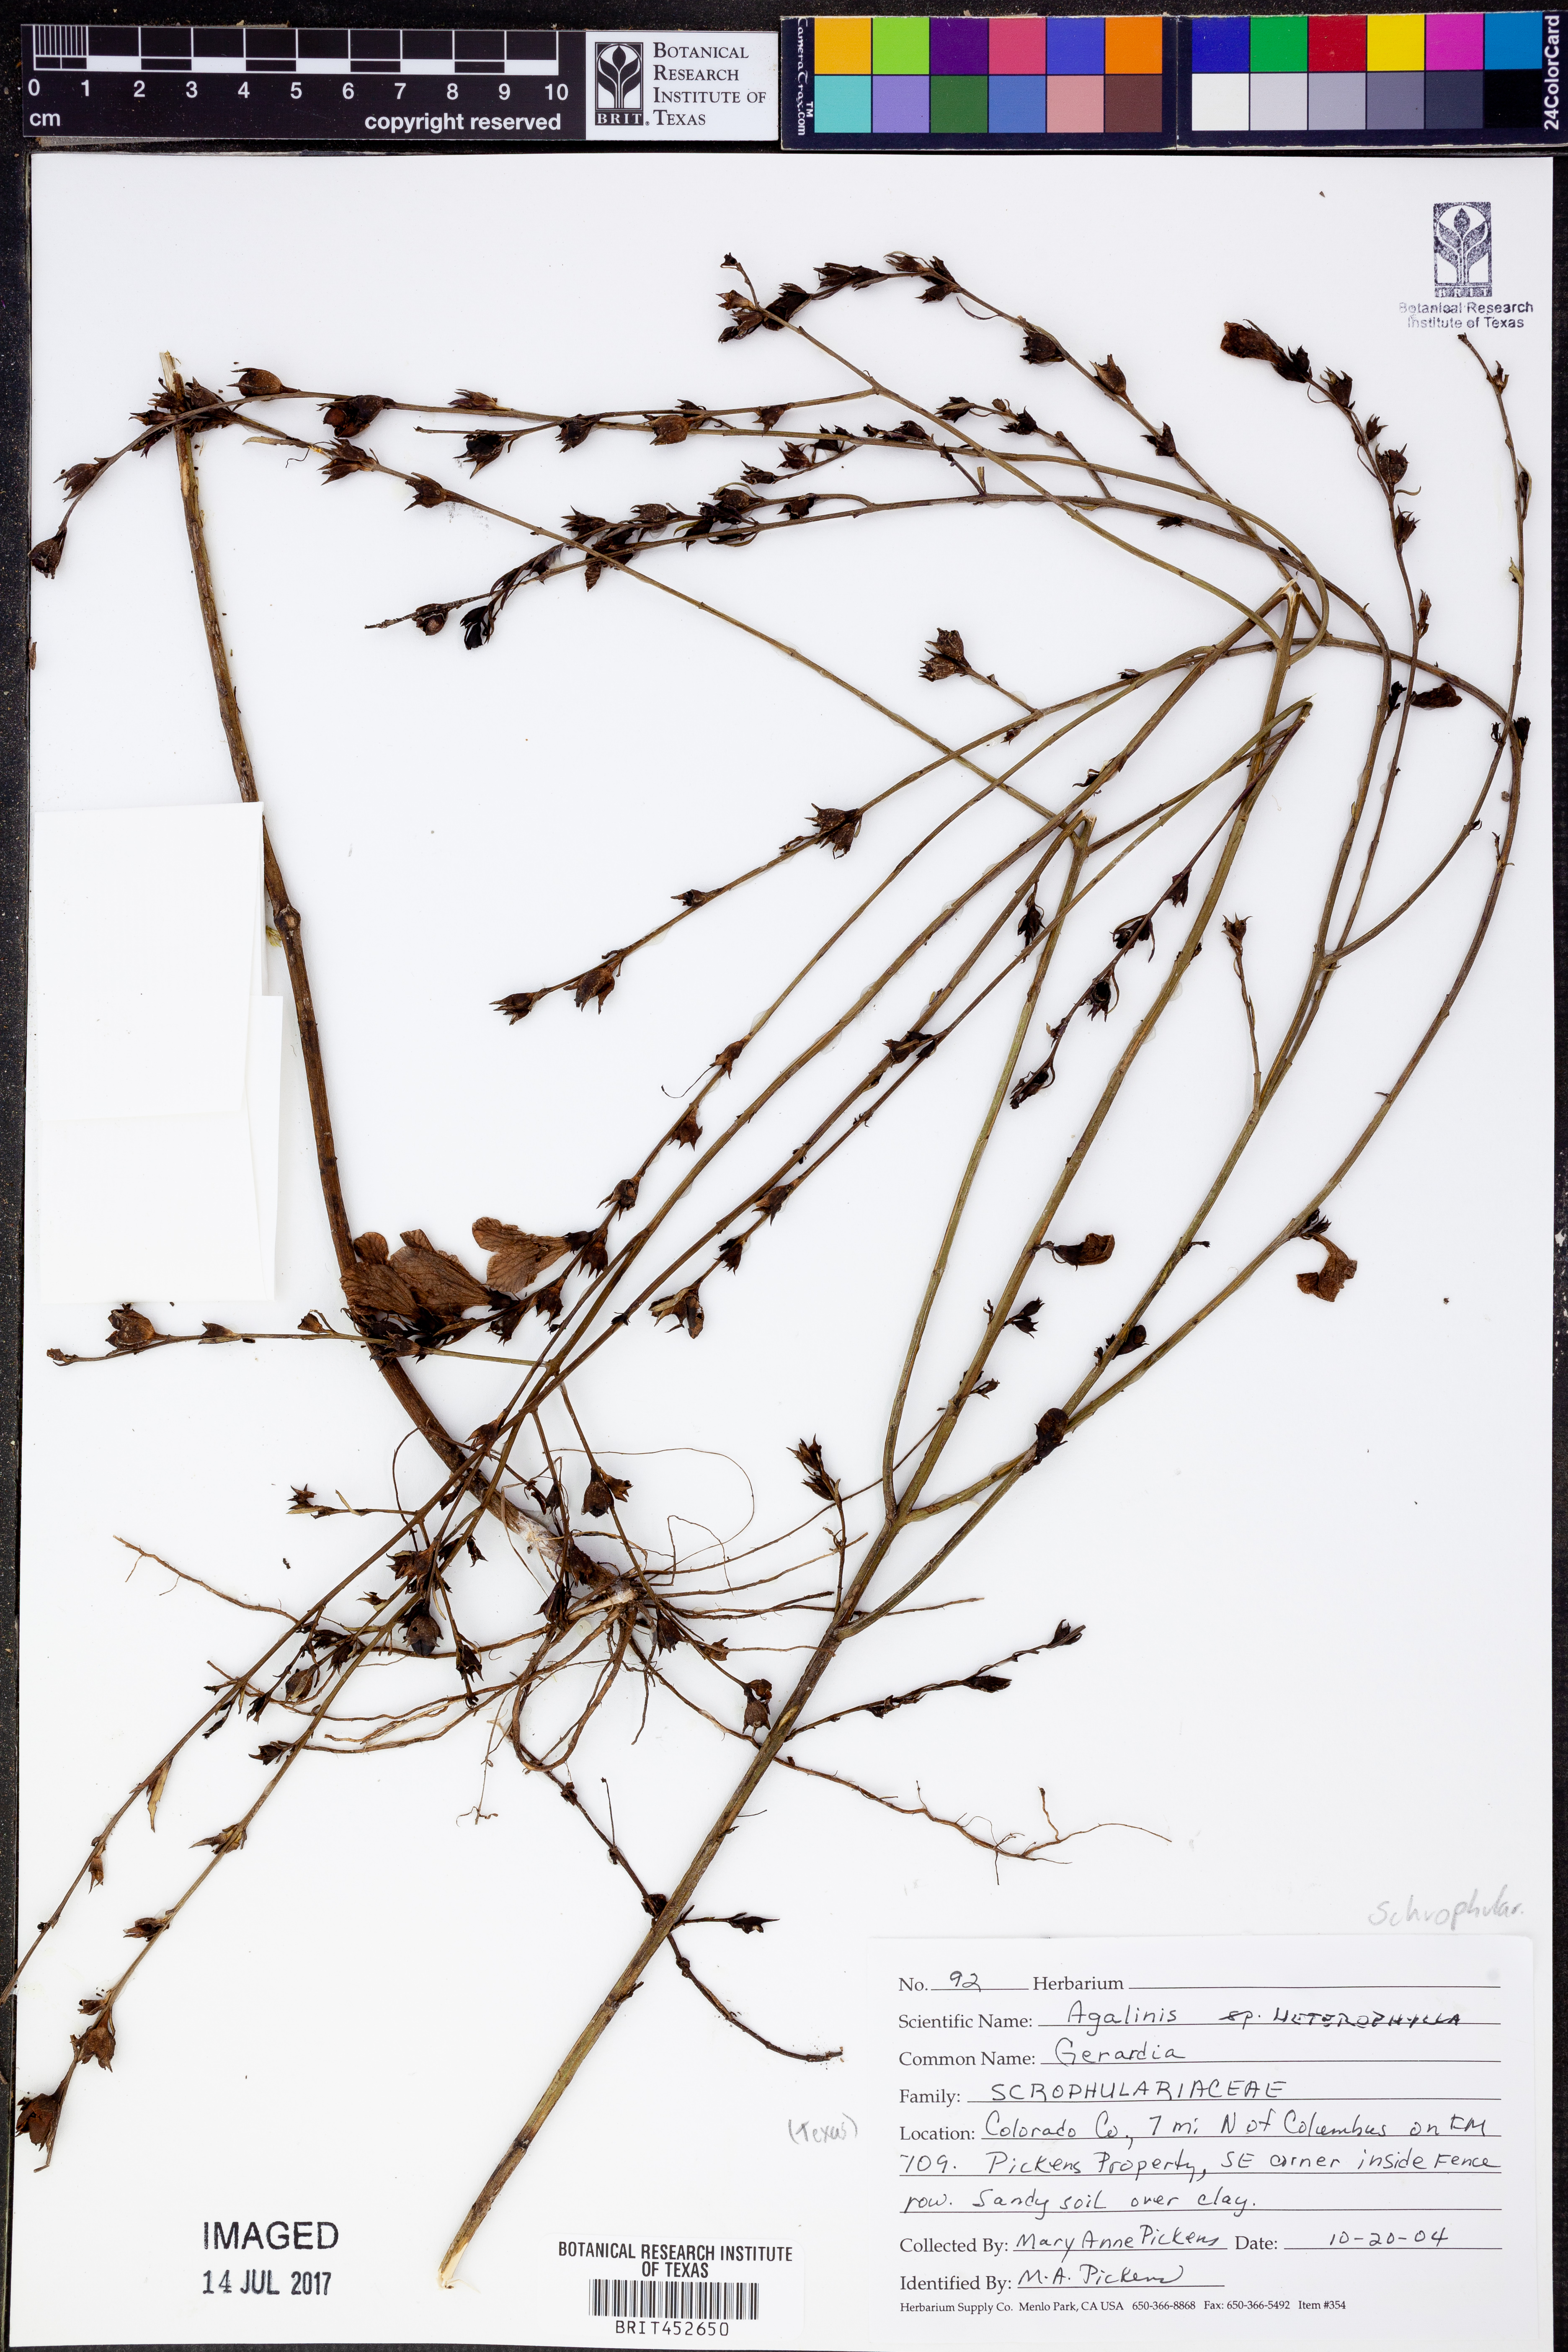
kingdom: Plantae
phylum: Tracheophyta
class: Magnoliopsida
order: Lamiales
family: Orobanchaceae
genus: Agalinis
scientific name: Agalinis heterophylla
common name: Prairie agalinis
